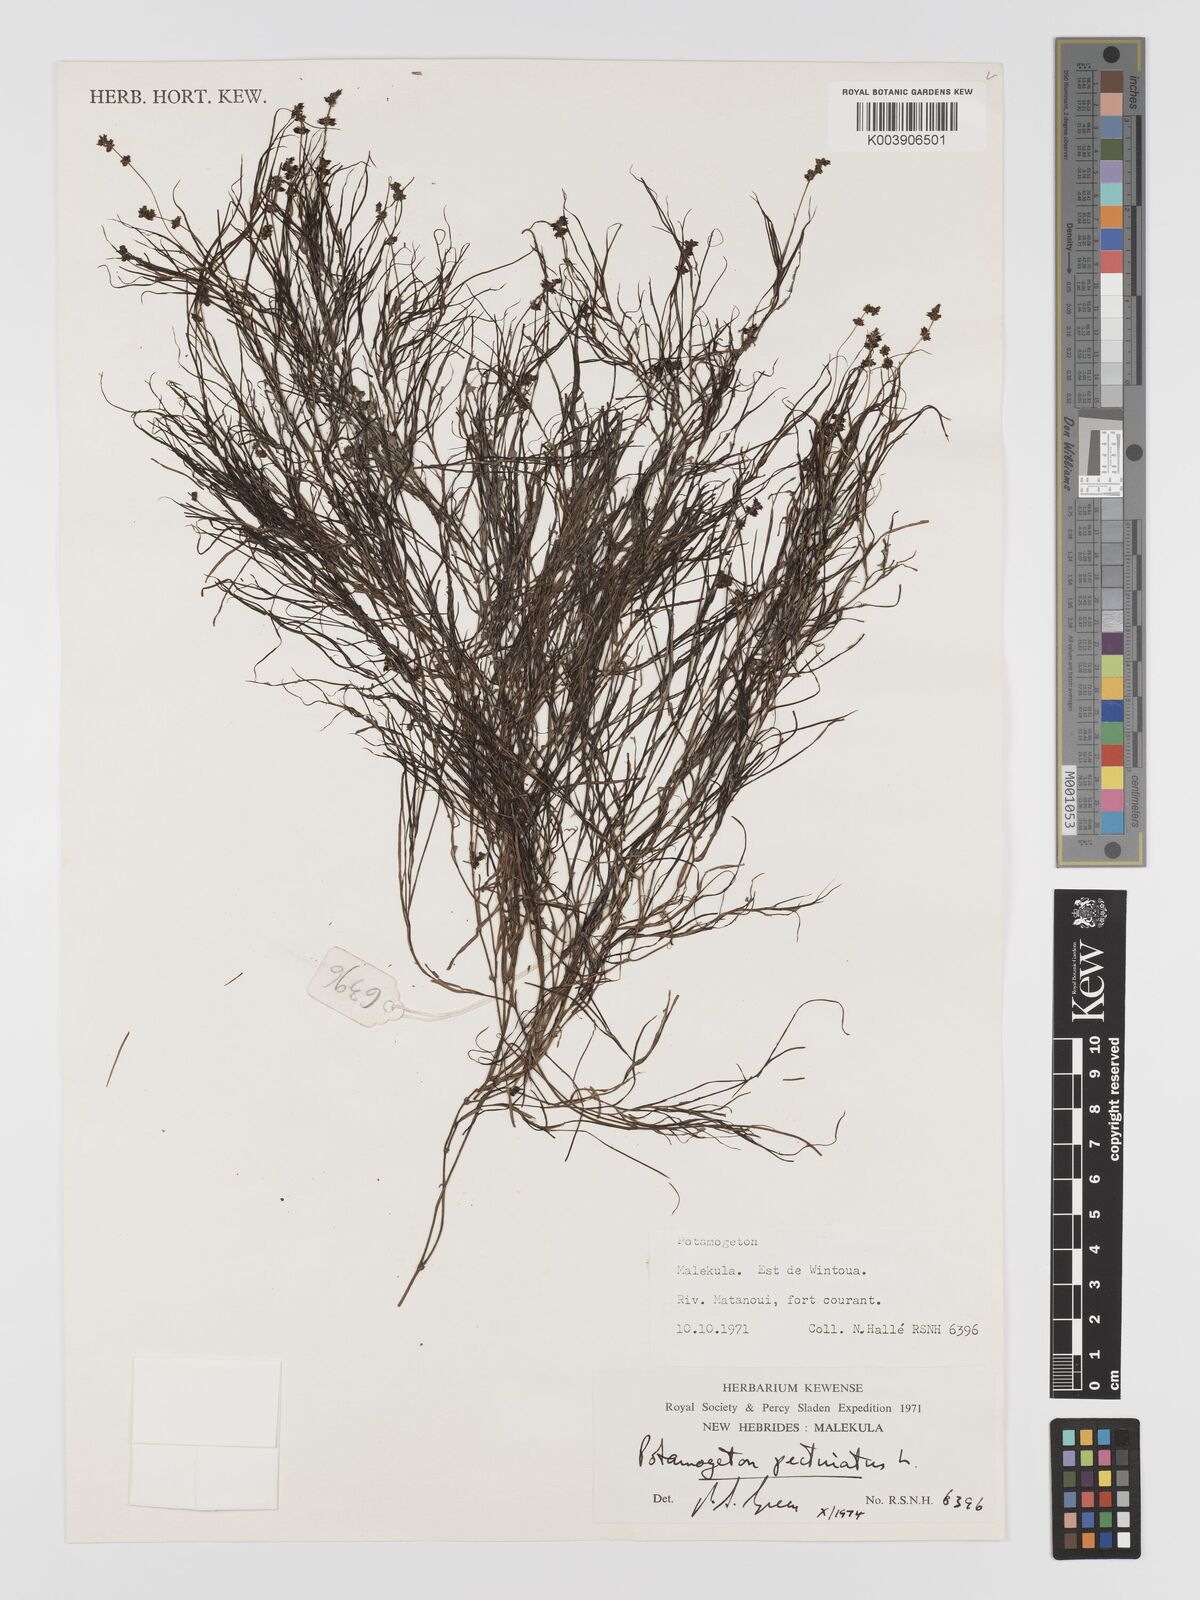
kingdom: Plantae
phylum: Tracheophyta
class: Liliopsida
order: Alismatales
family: Potamogetonaceae
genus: Stuckenia
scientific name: Stuckenia pectinata
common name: Sago pondweed
